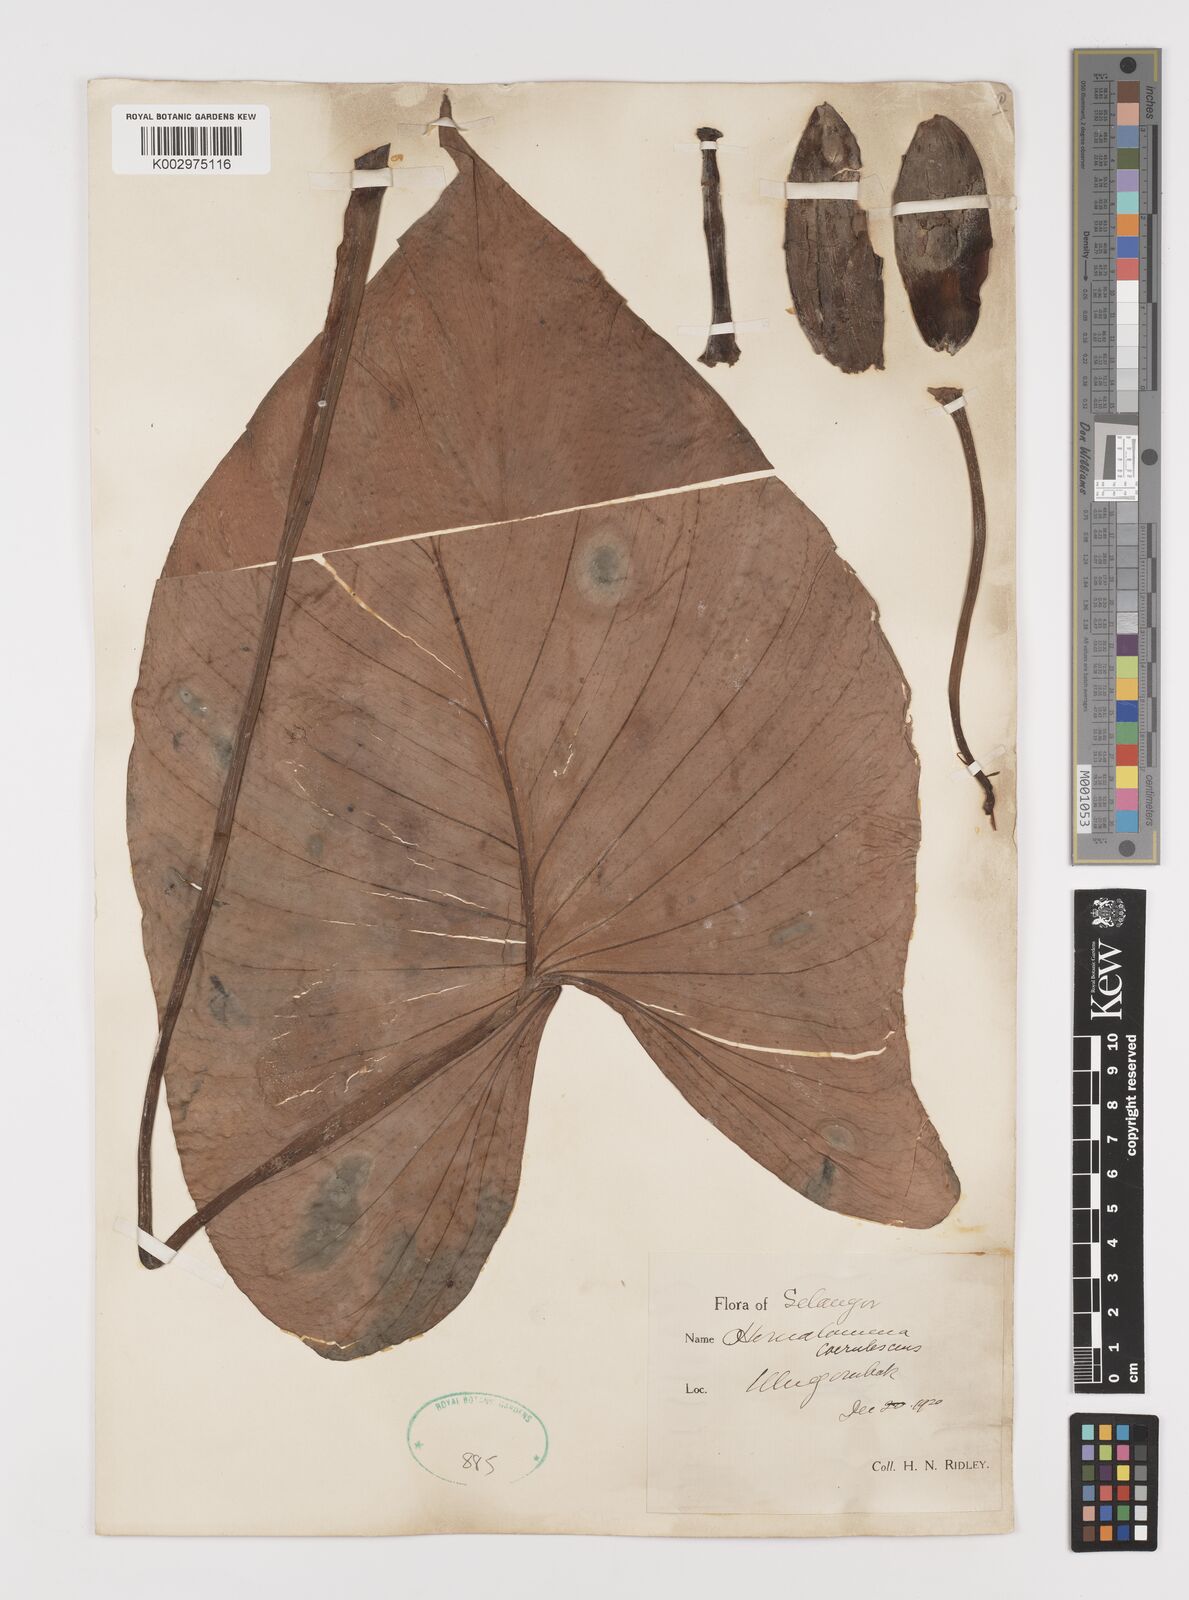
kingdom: Plantae
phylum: Tracheophyta
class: Liliopsida
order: Alismatales
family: Araceae
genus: Homalomena
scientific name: Homalomena pendula
